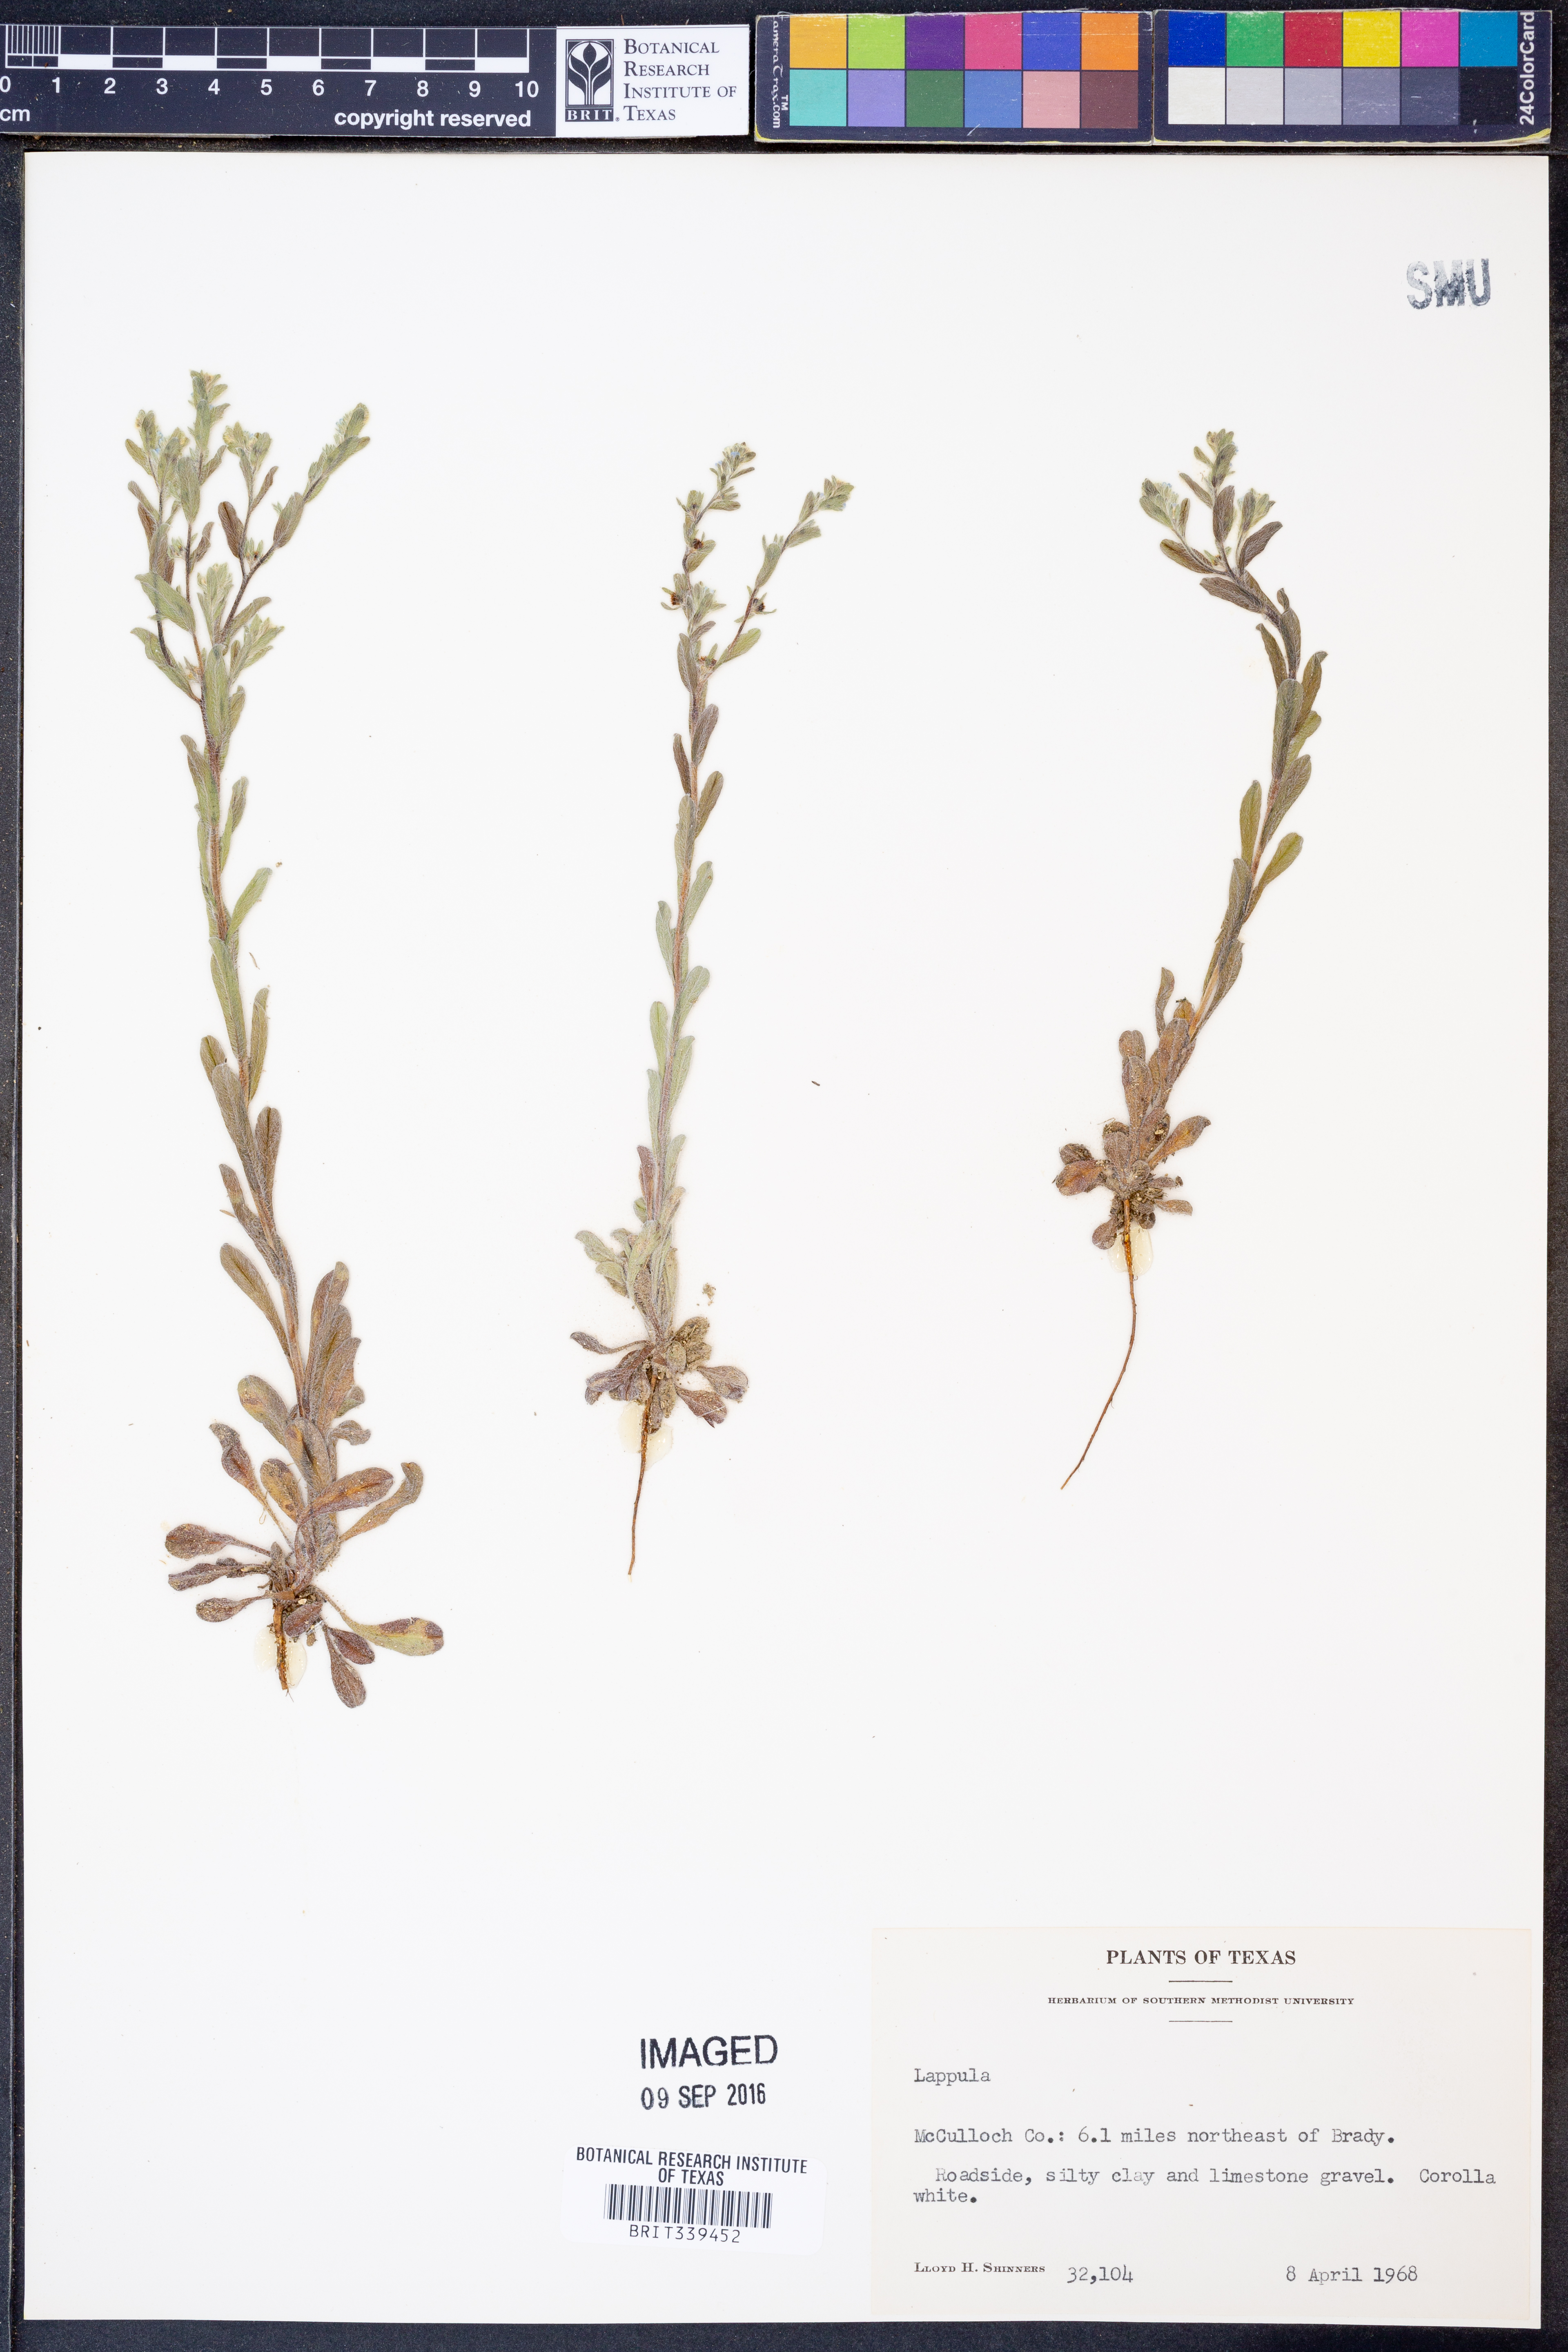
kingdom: Plantae
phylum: Tracheophyta
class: Magnoliopsida
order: Boraginales
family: Boraginaceae
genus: Lappula
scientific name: Lappula
